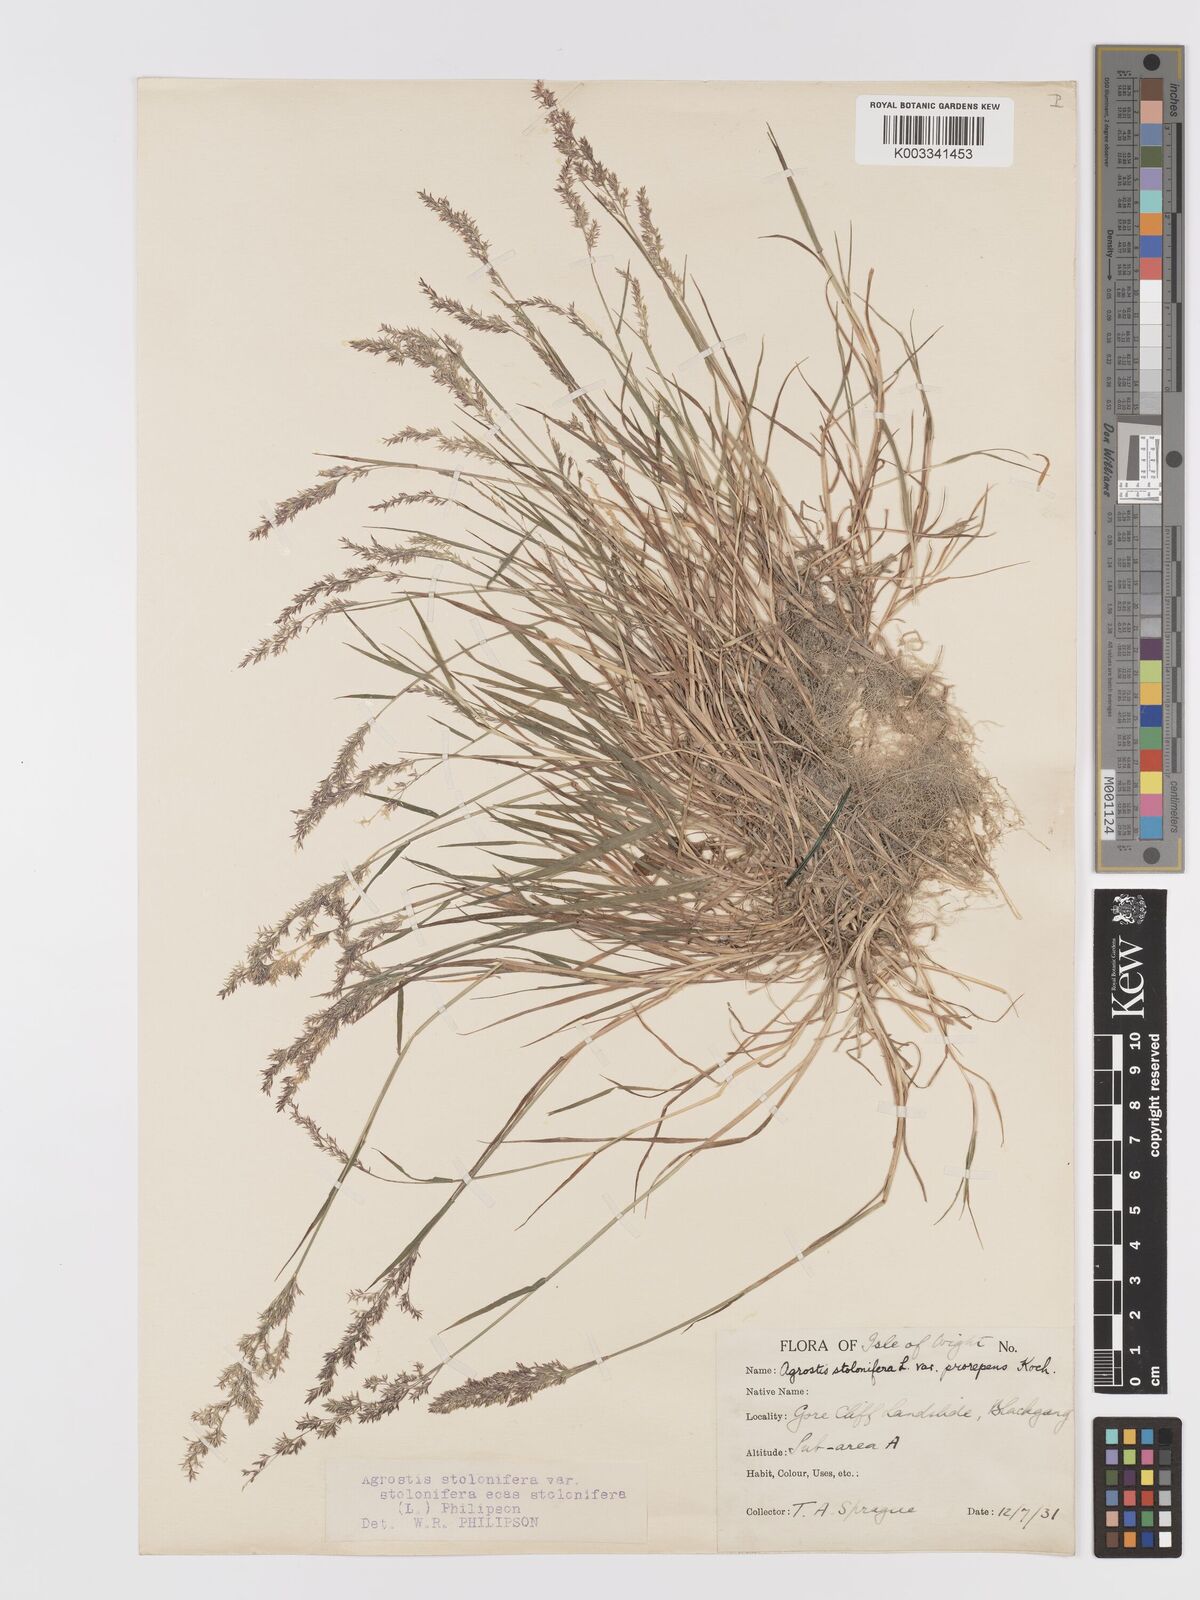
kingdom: Plantae
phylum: Tracheophyta
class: Liliopsida
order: Poales
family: Poaceae
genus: Agrostis
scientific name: Agrostis stolonifera
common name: Creeping bentgrass
